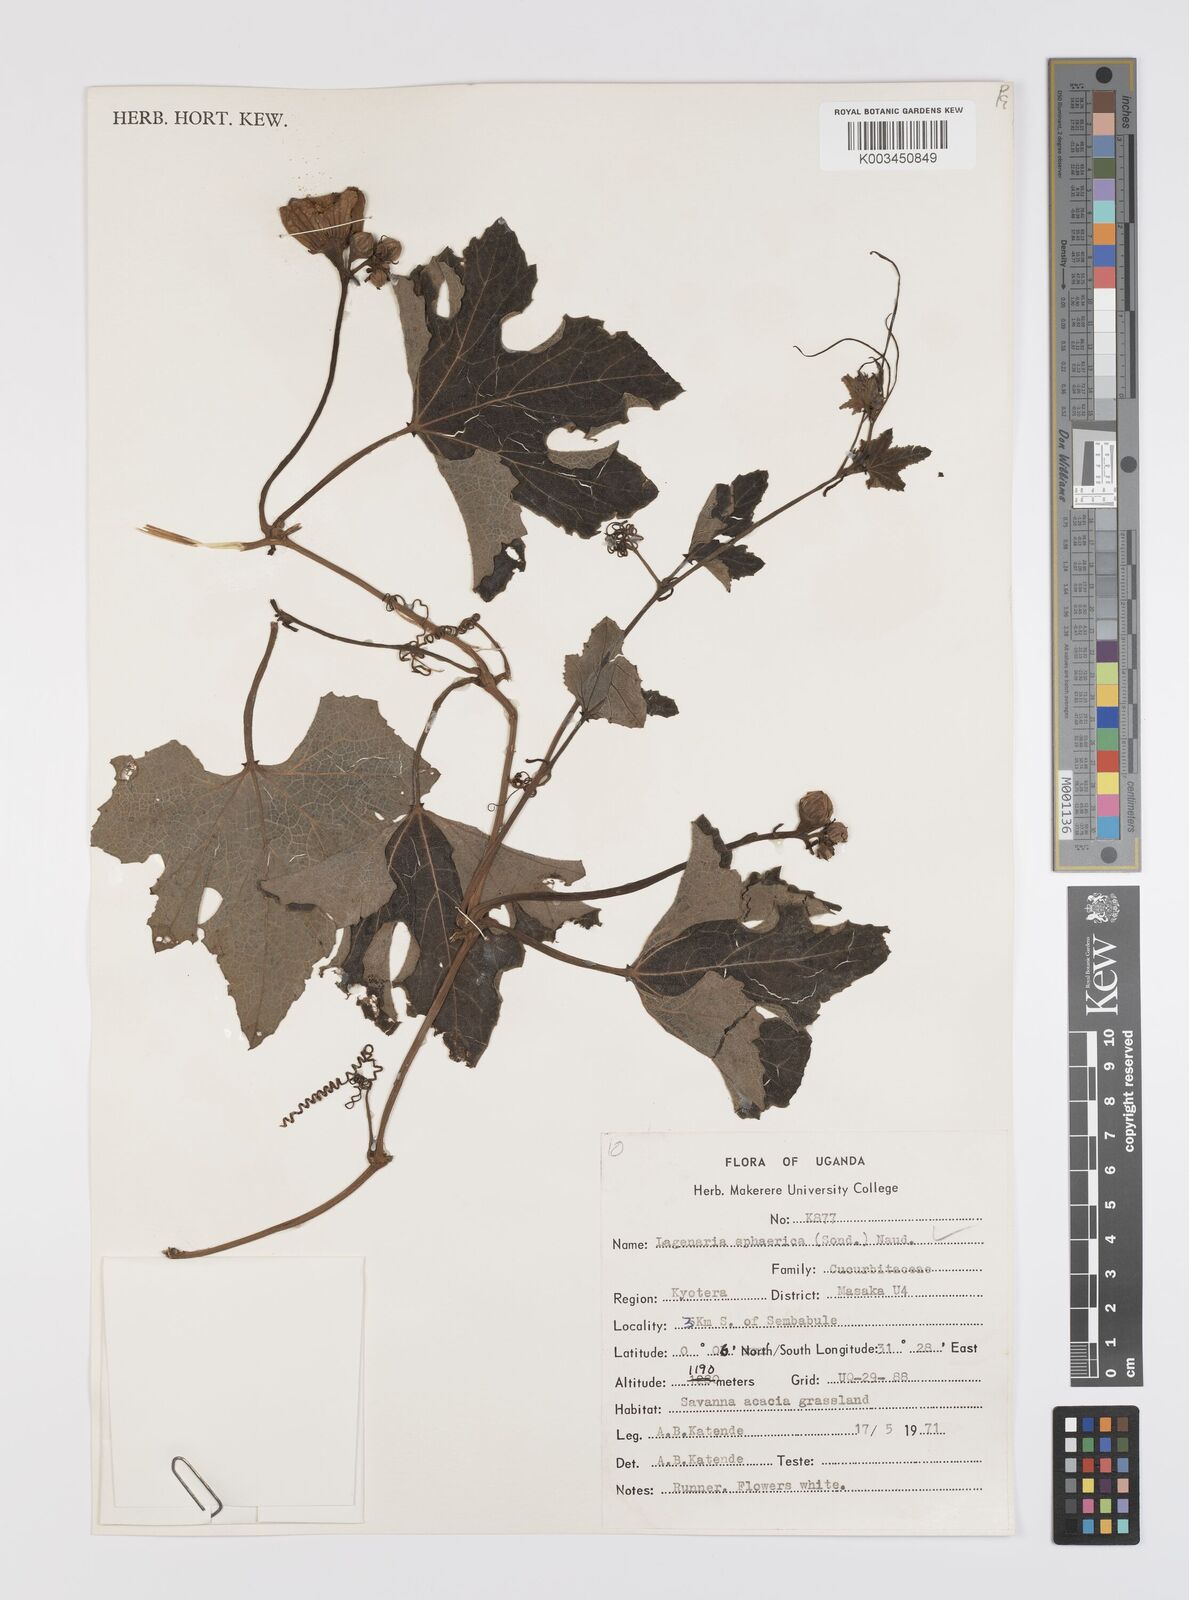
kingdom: Plantae
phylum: Tracheophyta
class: Magnoliopsida
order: Cucurbitales
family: Cucurbitaceae
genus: Lagenaria
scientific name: Lagenaria sphaerica
